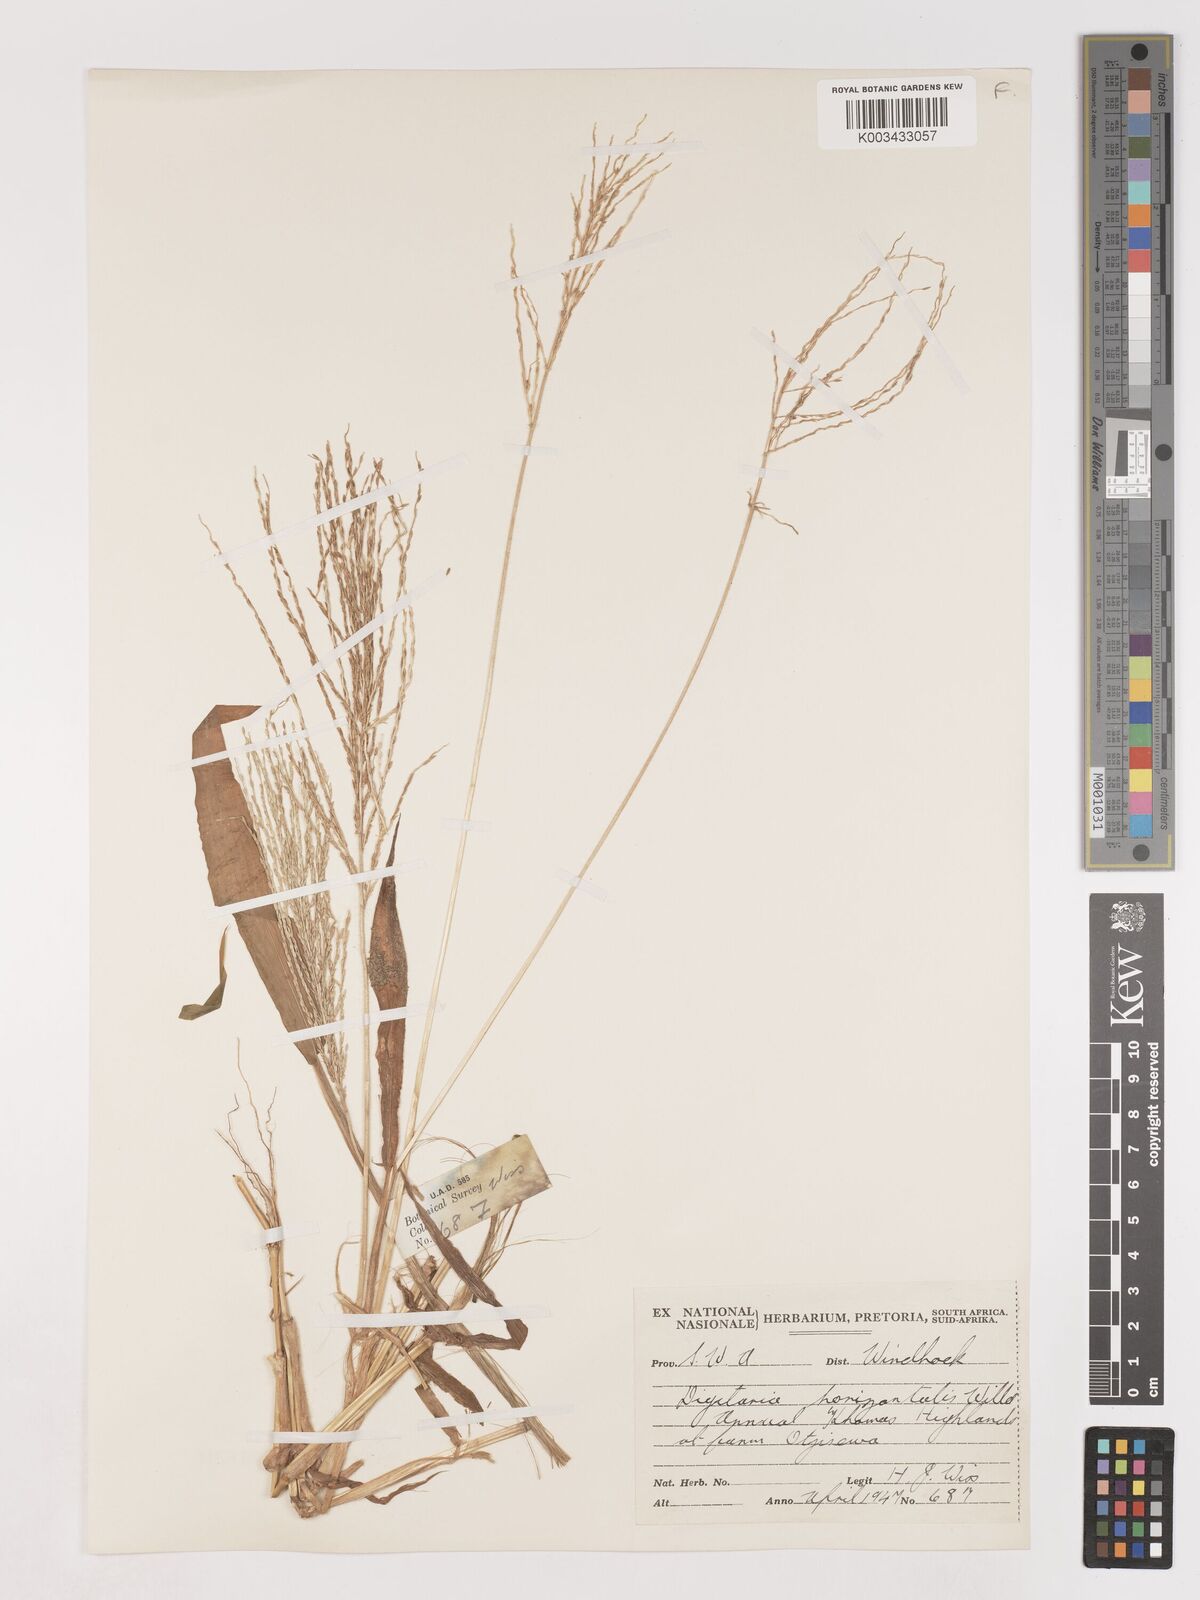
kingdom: Plantae
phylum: Tracheophyta
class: Liliopsida
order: Poales
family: Poaceae
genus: Digitaria
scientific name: Digitaria velutina
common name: Long-plume finger grass
